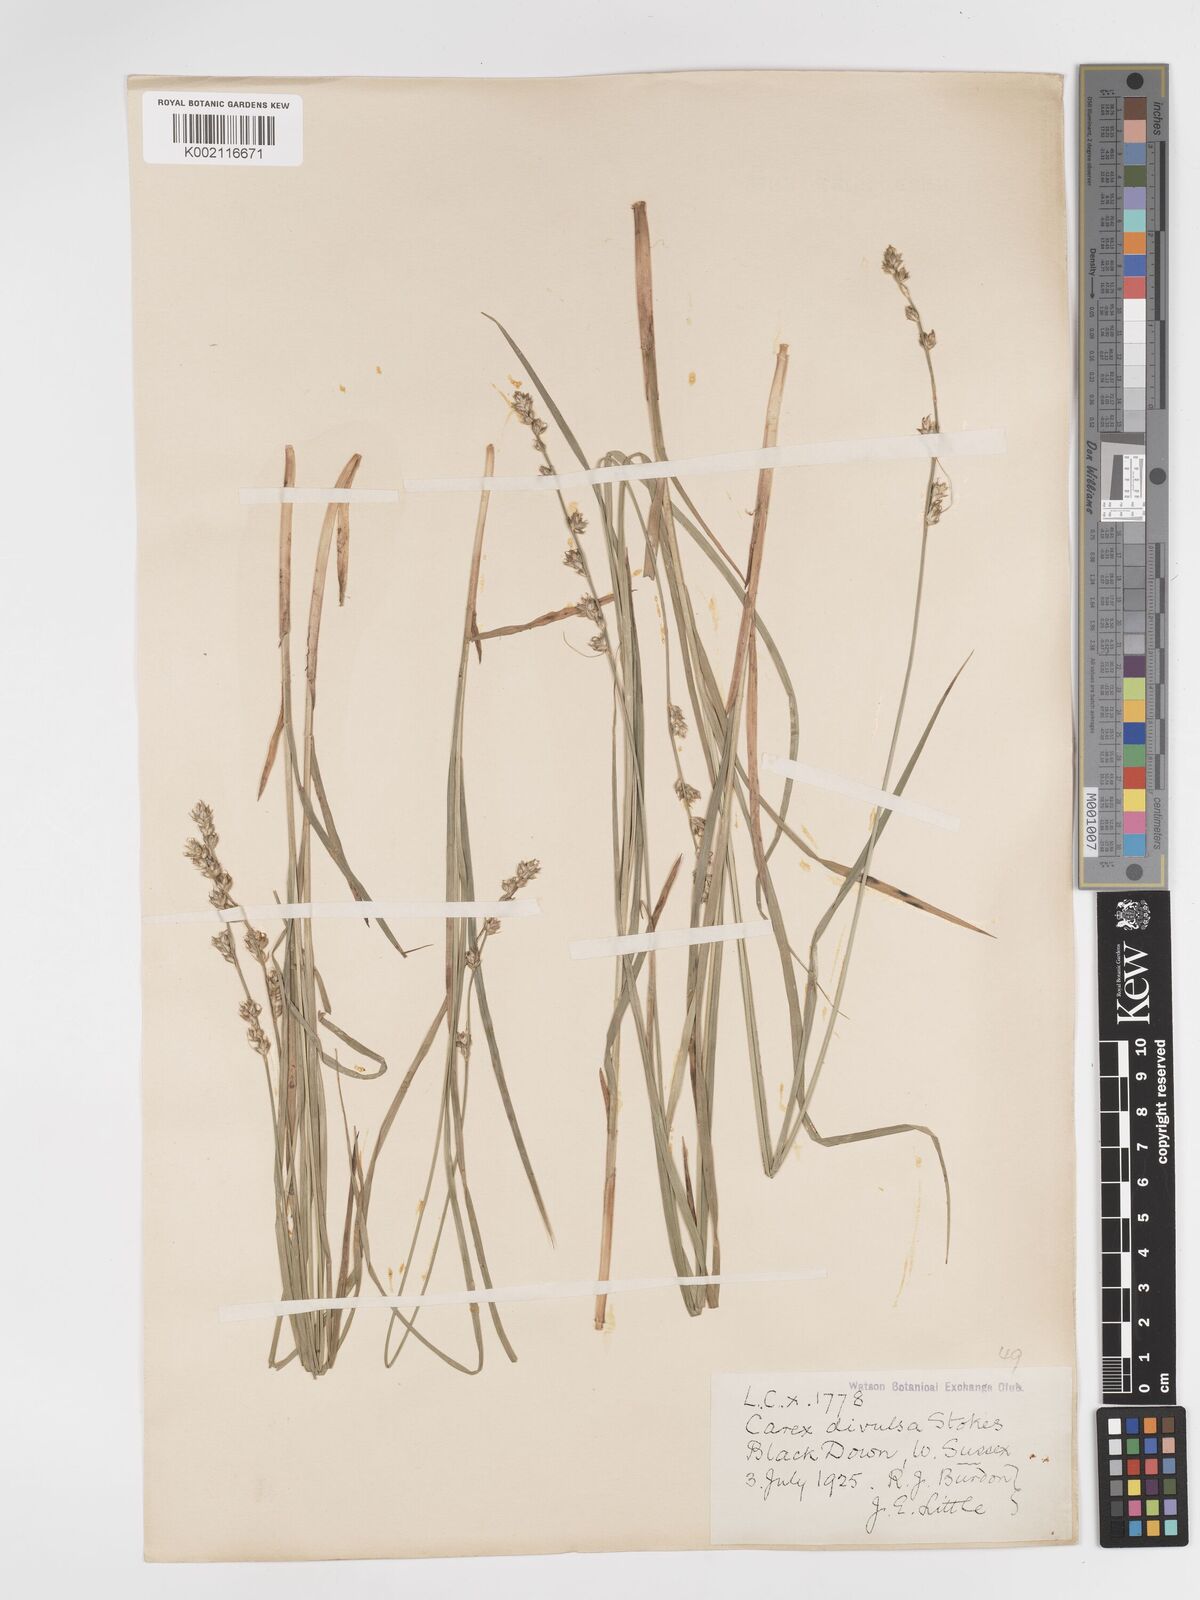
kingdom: Plantae
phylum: Tracheophyta
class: Liliopsida
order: Poales
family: Cyperaceae
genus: Carex
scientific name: Carex divulsa
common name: Grassland sedge
